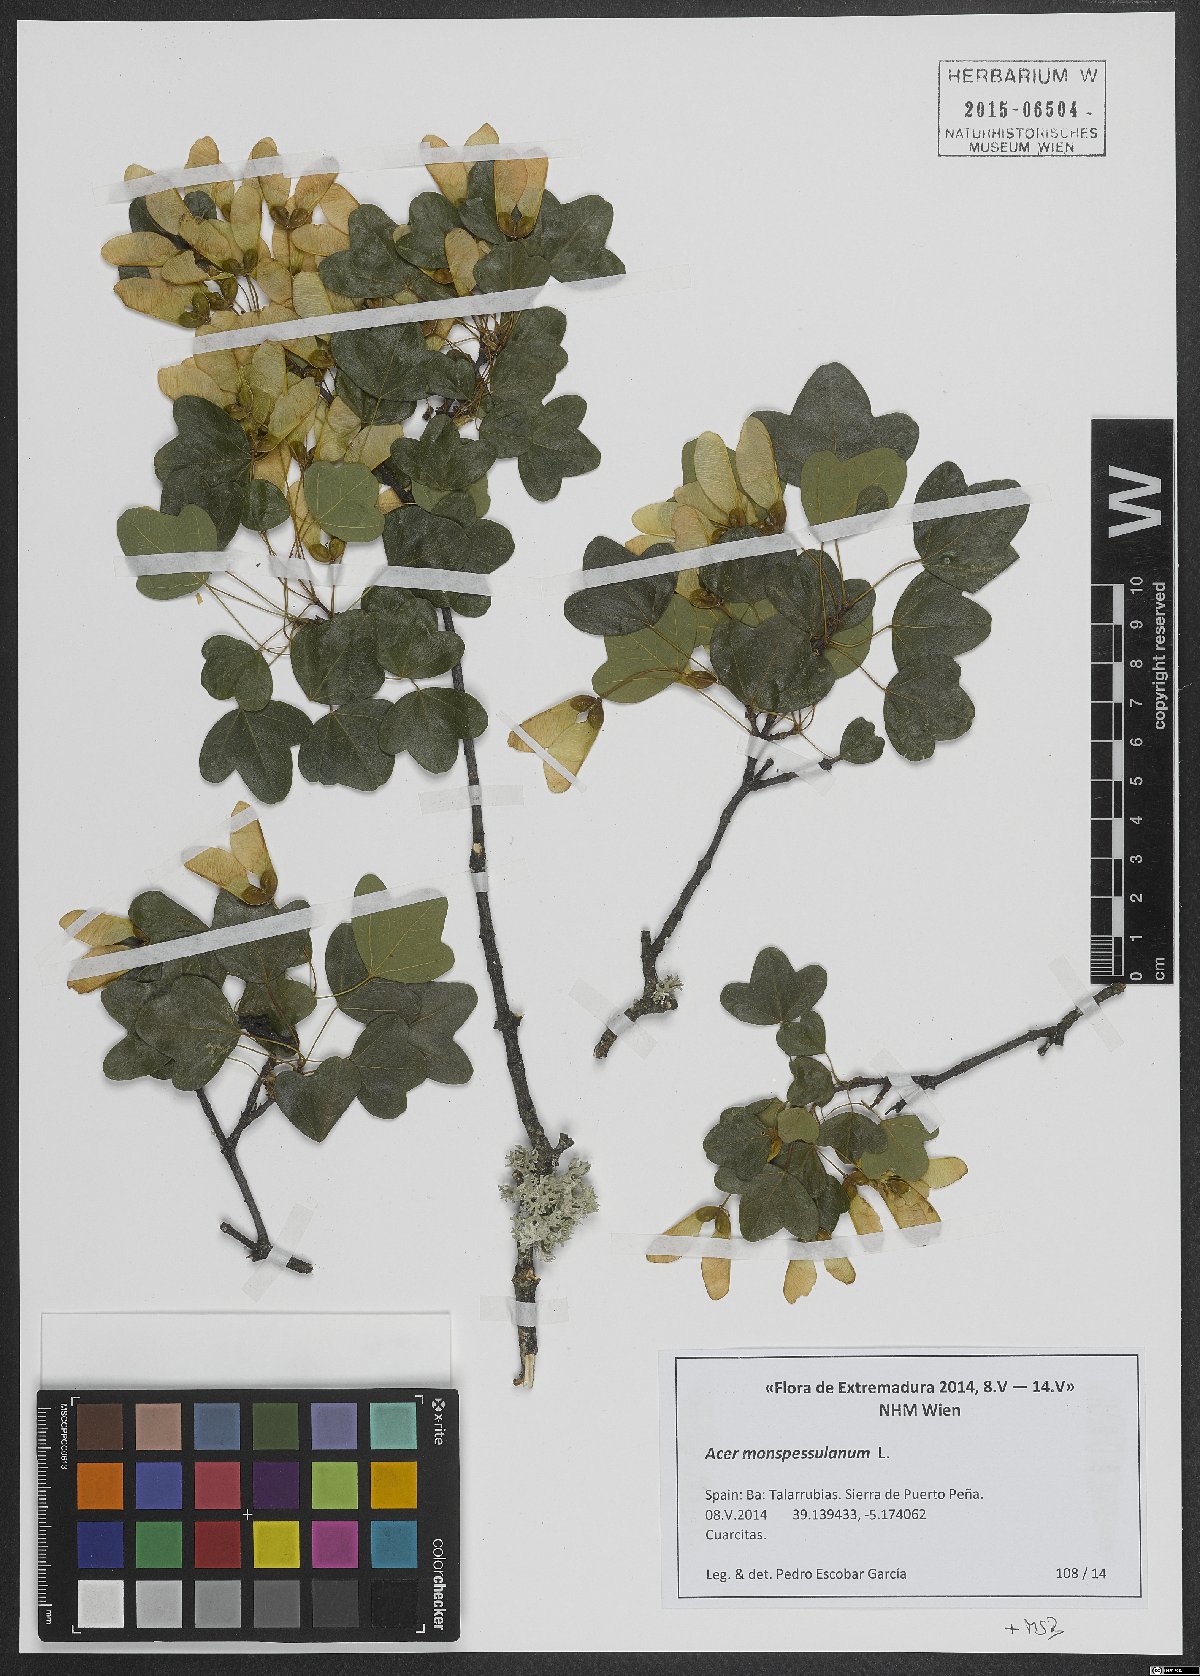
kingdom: Plantae
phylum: Tracheophyta
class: Magnoliopsida
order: Sapindales
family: Sapindaceae
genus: Acer
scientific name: Acer monspessulanum
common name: Montpellier maple
